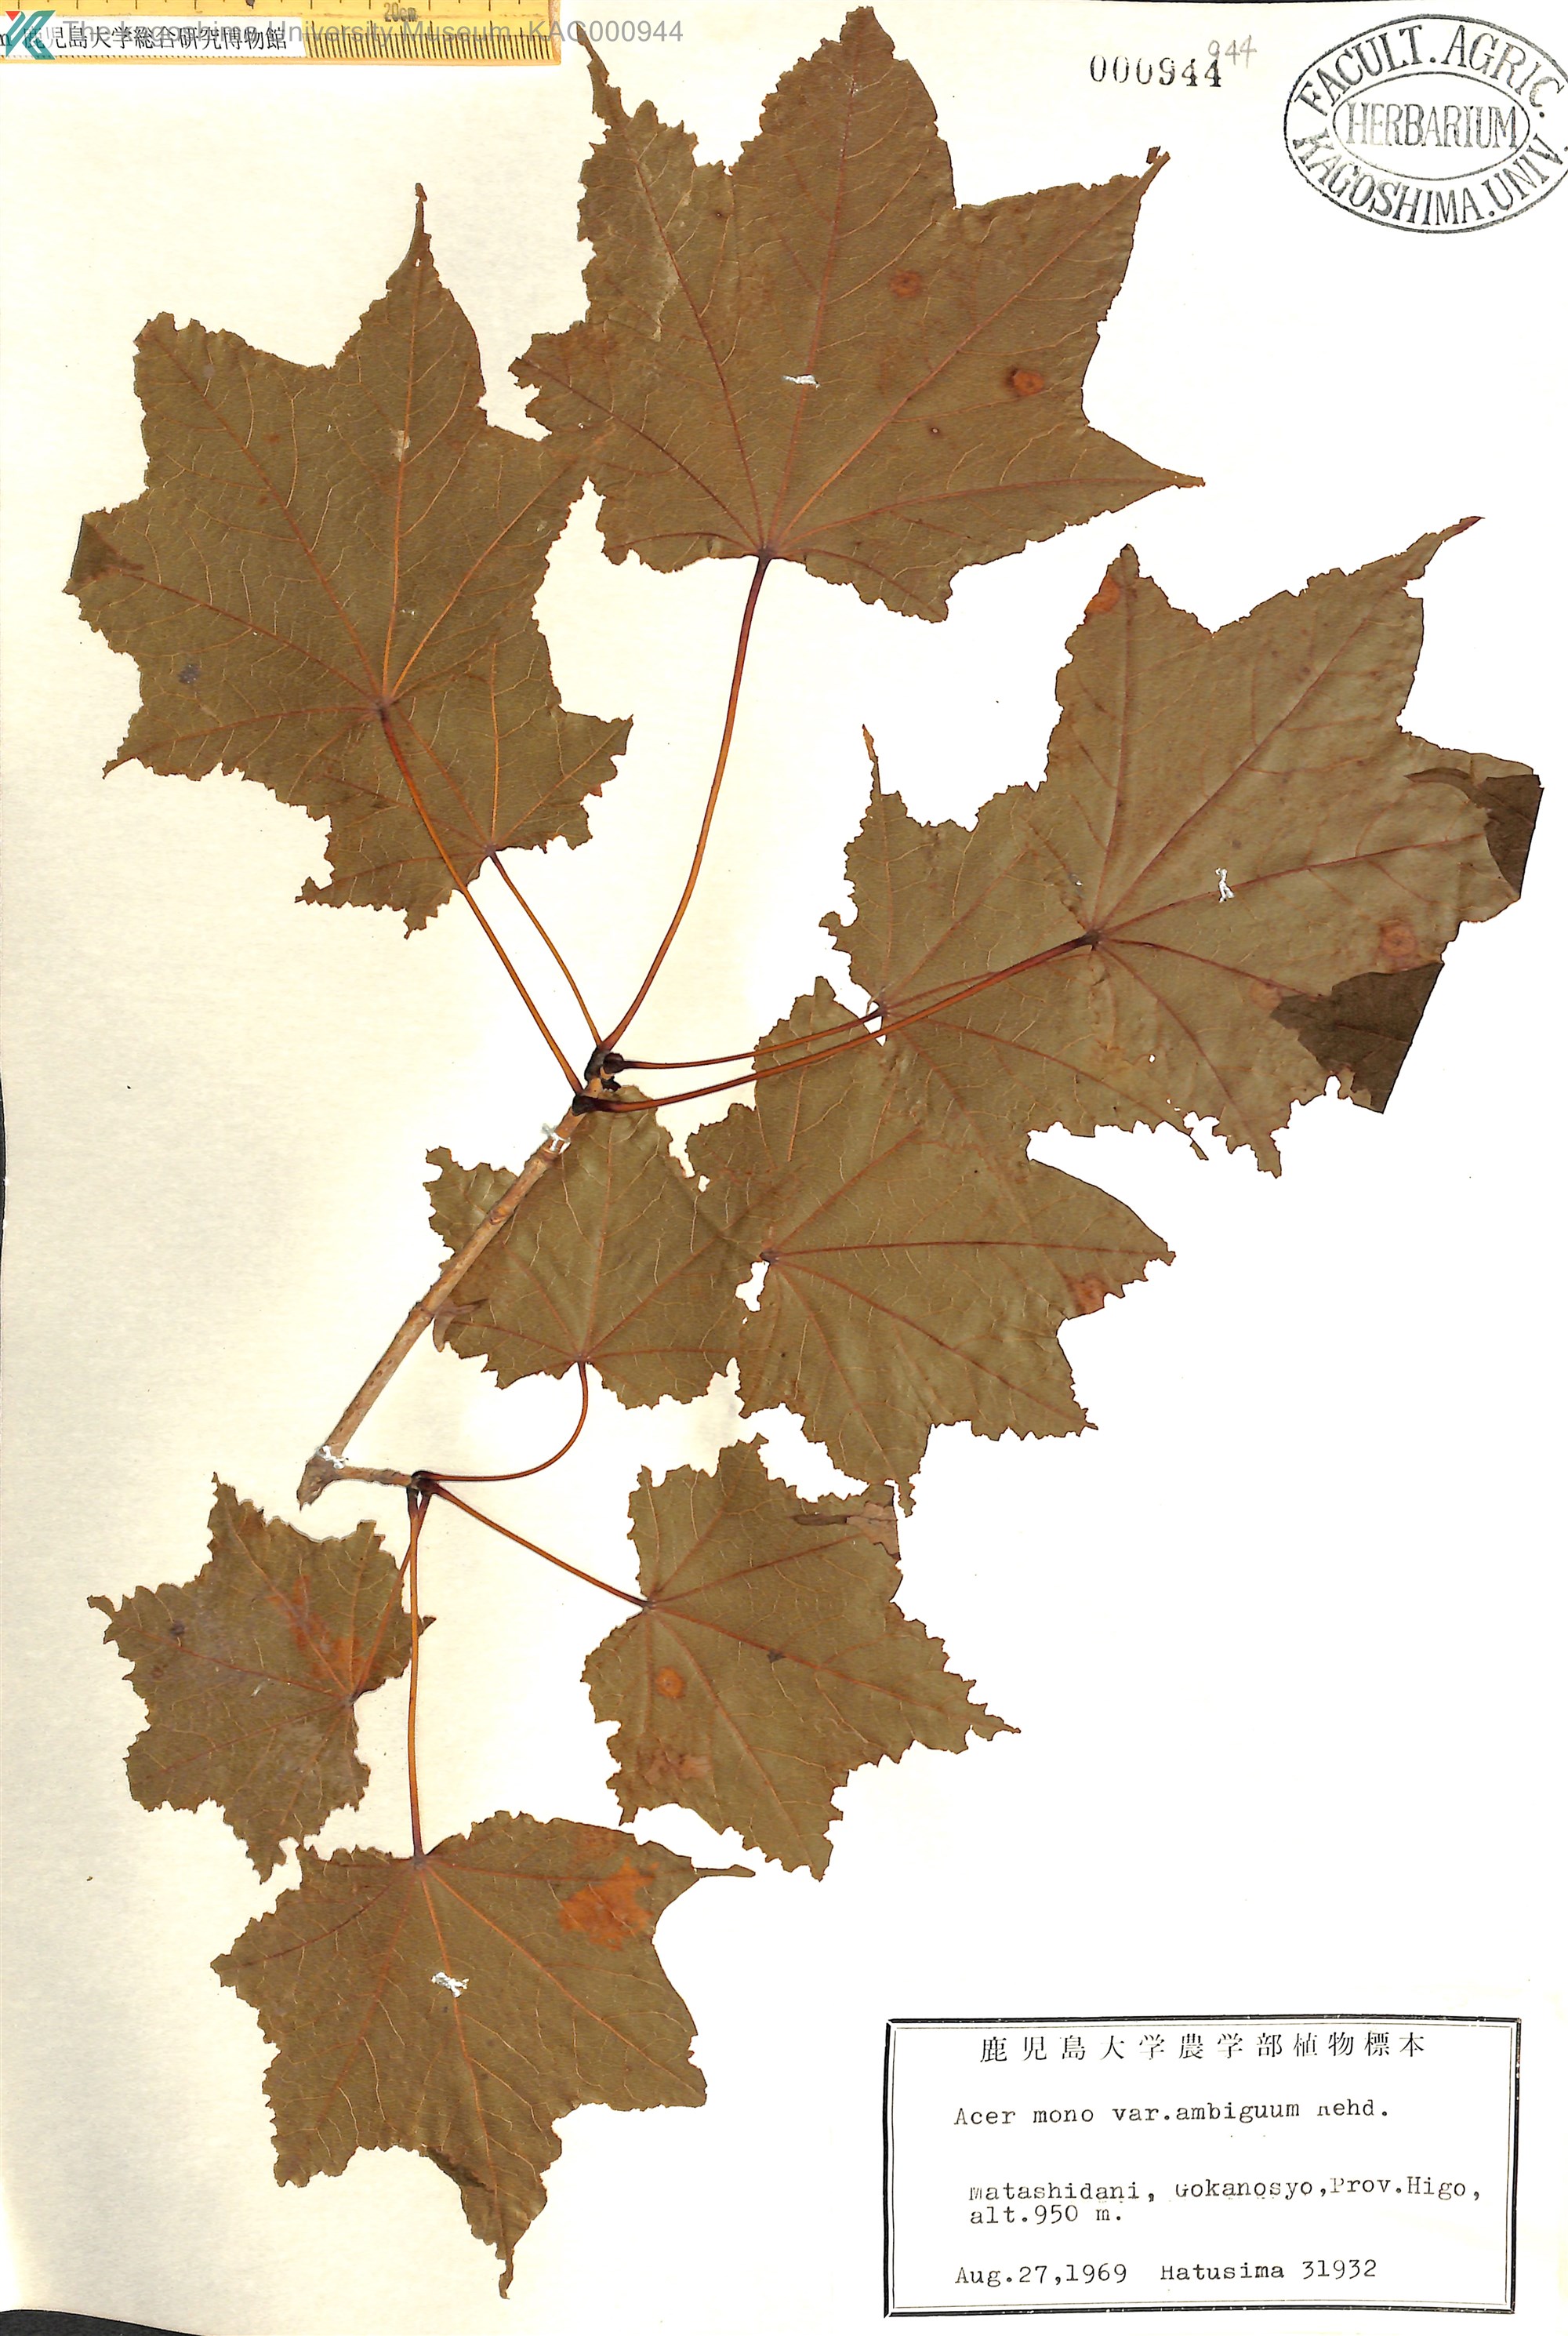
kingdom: Plantae
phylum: Tracheophyta
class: Magnoliopsida
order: Sapindales
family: Sapindaceae
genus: Acer
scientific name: Acer pictum
